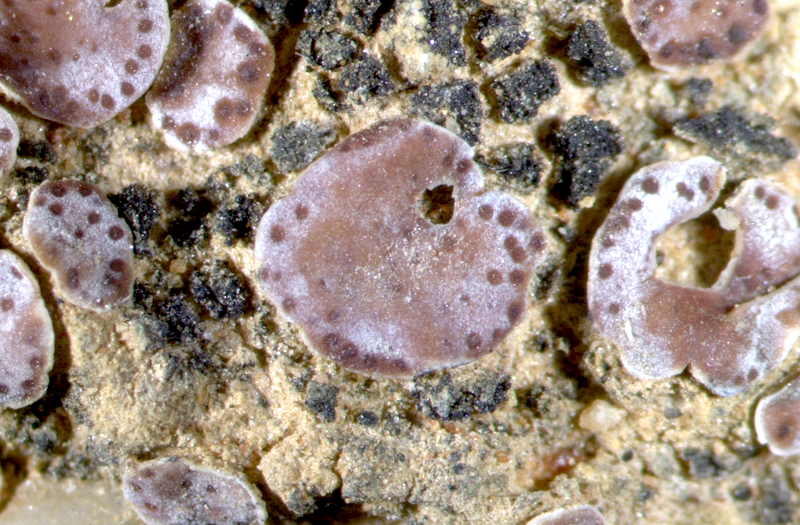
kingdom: Fungi
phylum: Ascomycota
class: Lecanoromycetes
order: Lecanorales
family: Psoraceae
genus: Psora
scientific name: Psora crenata
